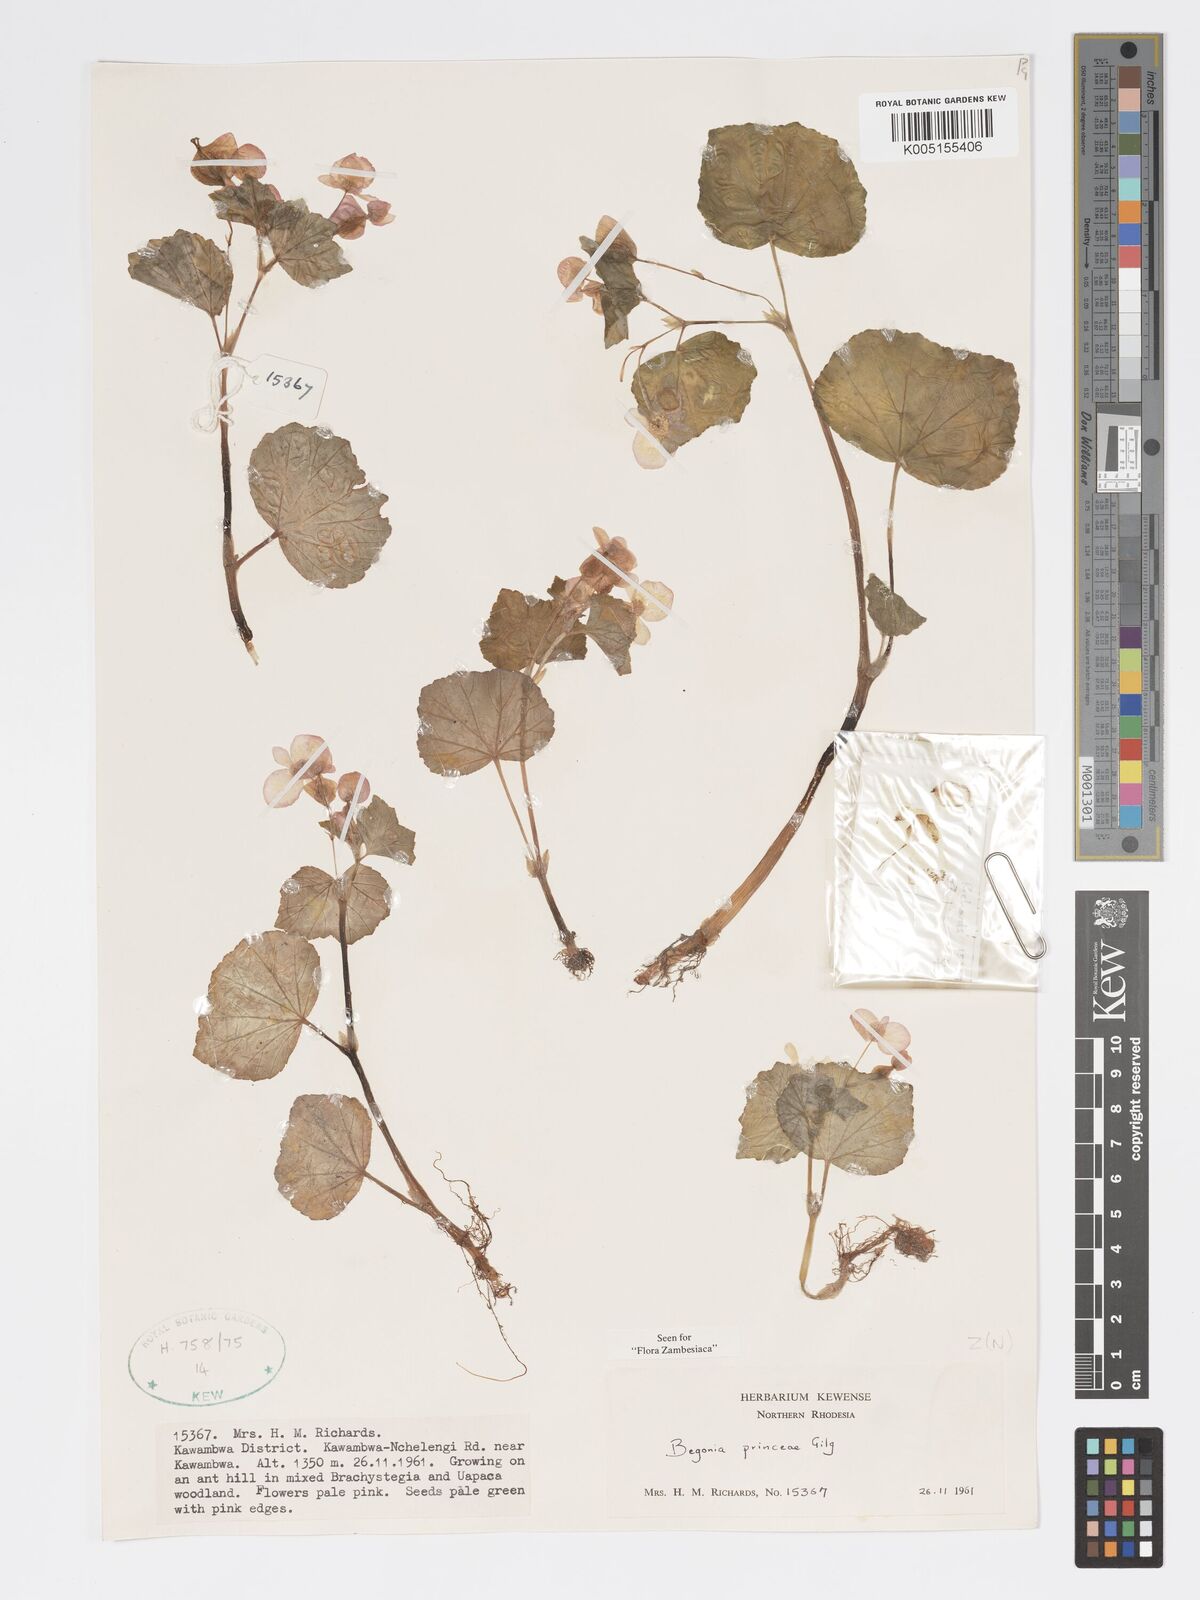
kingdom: Plantae
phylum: Tracheophyta
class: Magnoliopsida
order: Cucurbitales
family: Begoniaceae
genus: Begonia
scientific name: Begonia princeae
